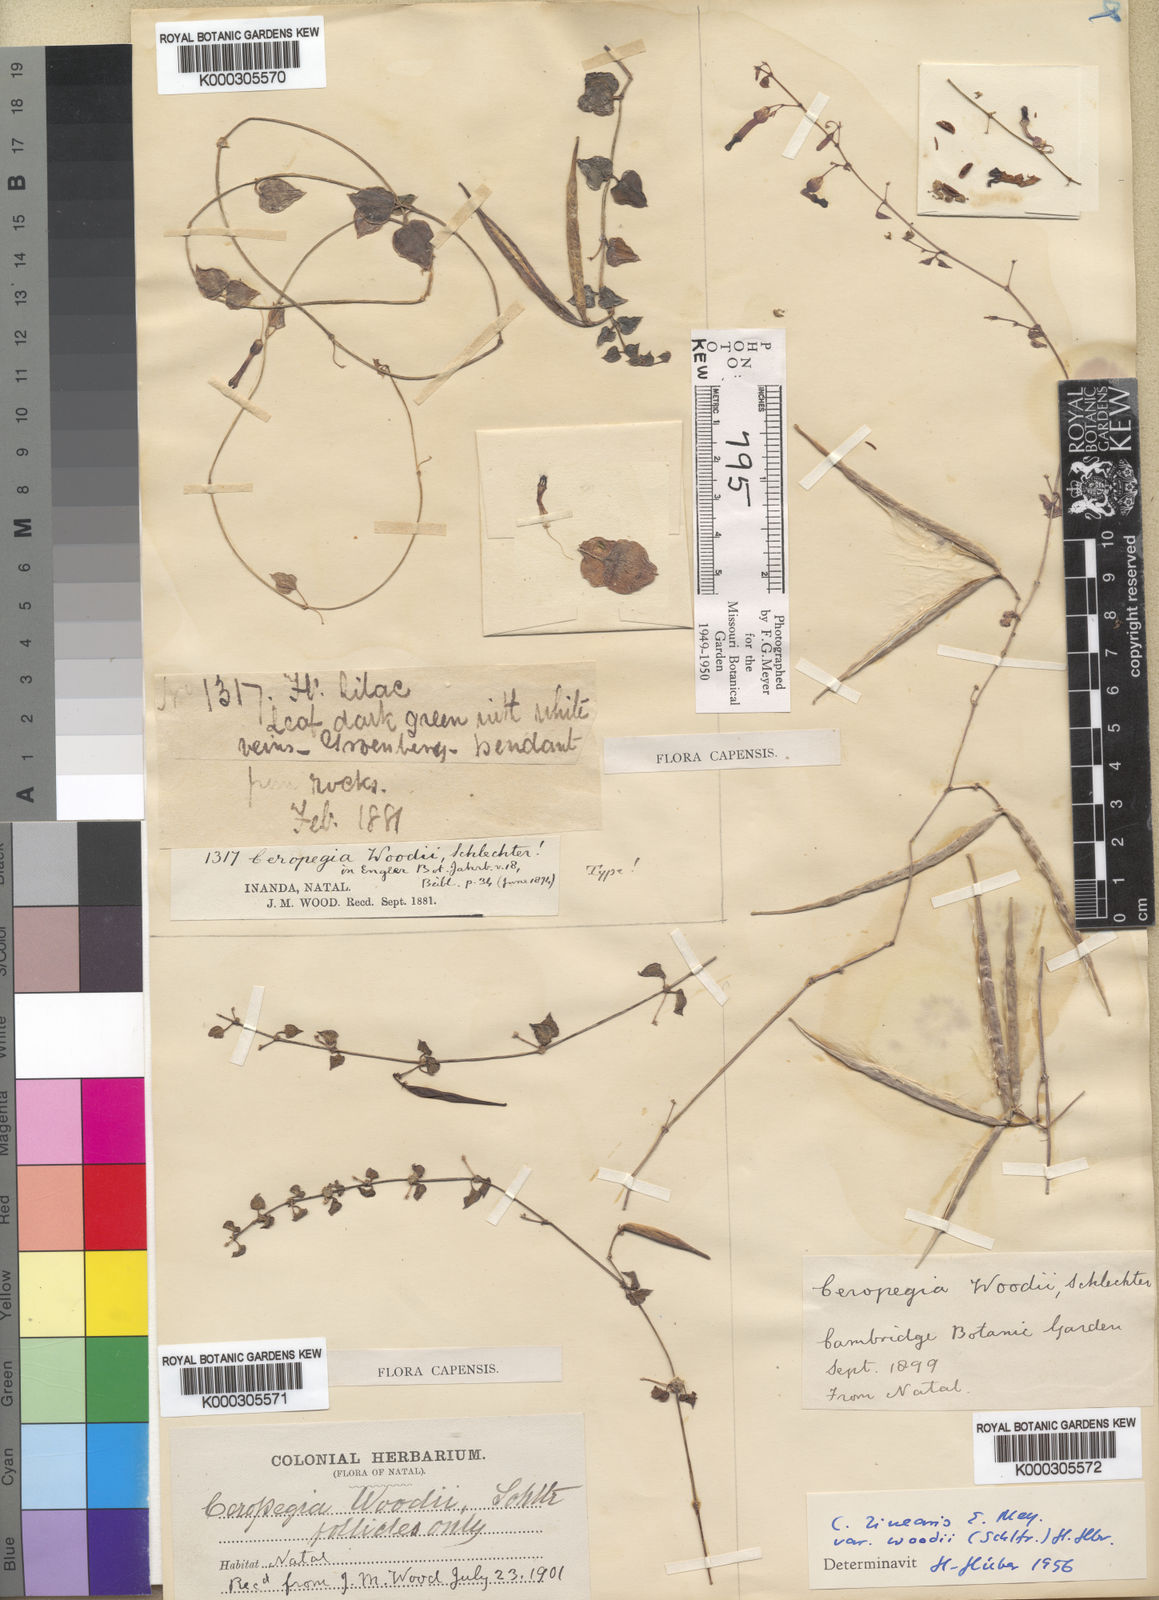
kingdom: Plantae
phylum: Tracheophyta
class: Magnoliopsida
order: Gentianales
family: Apocynaceae
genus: Ceropegia
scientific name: Ceropegia woodii
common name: Hearts entangled
